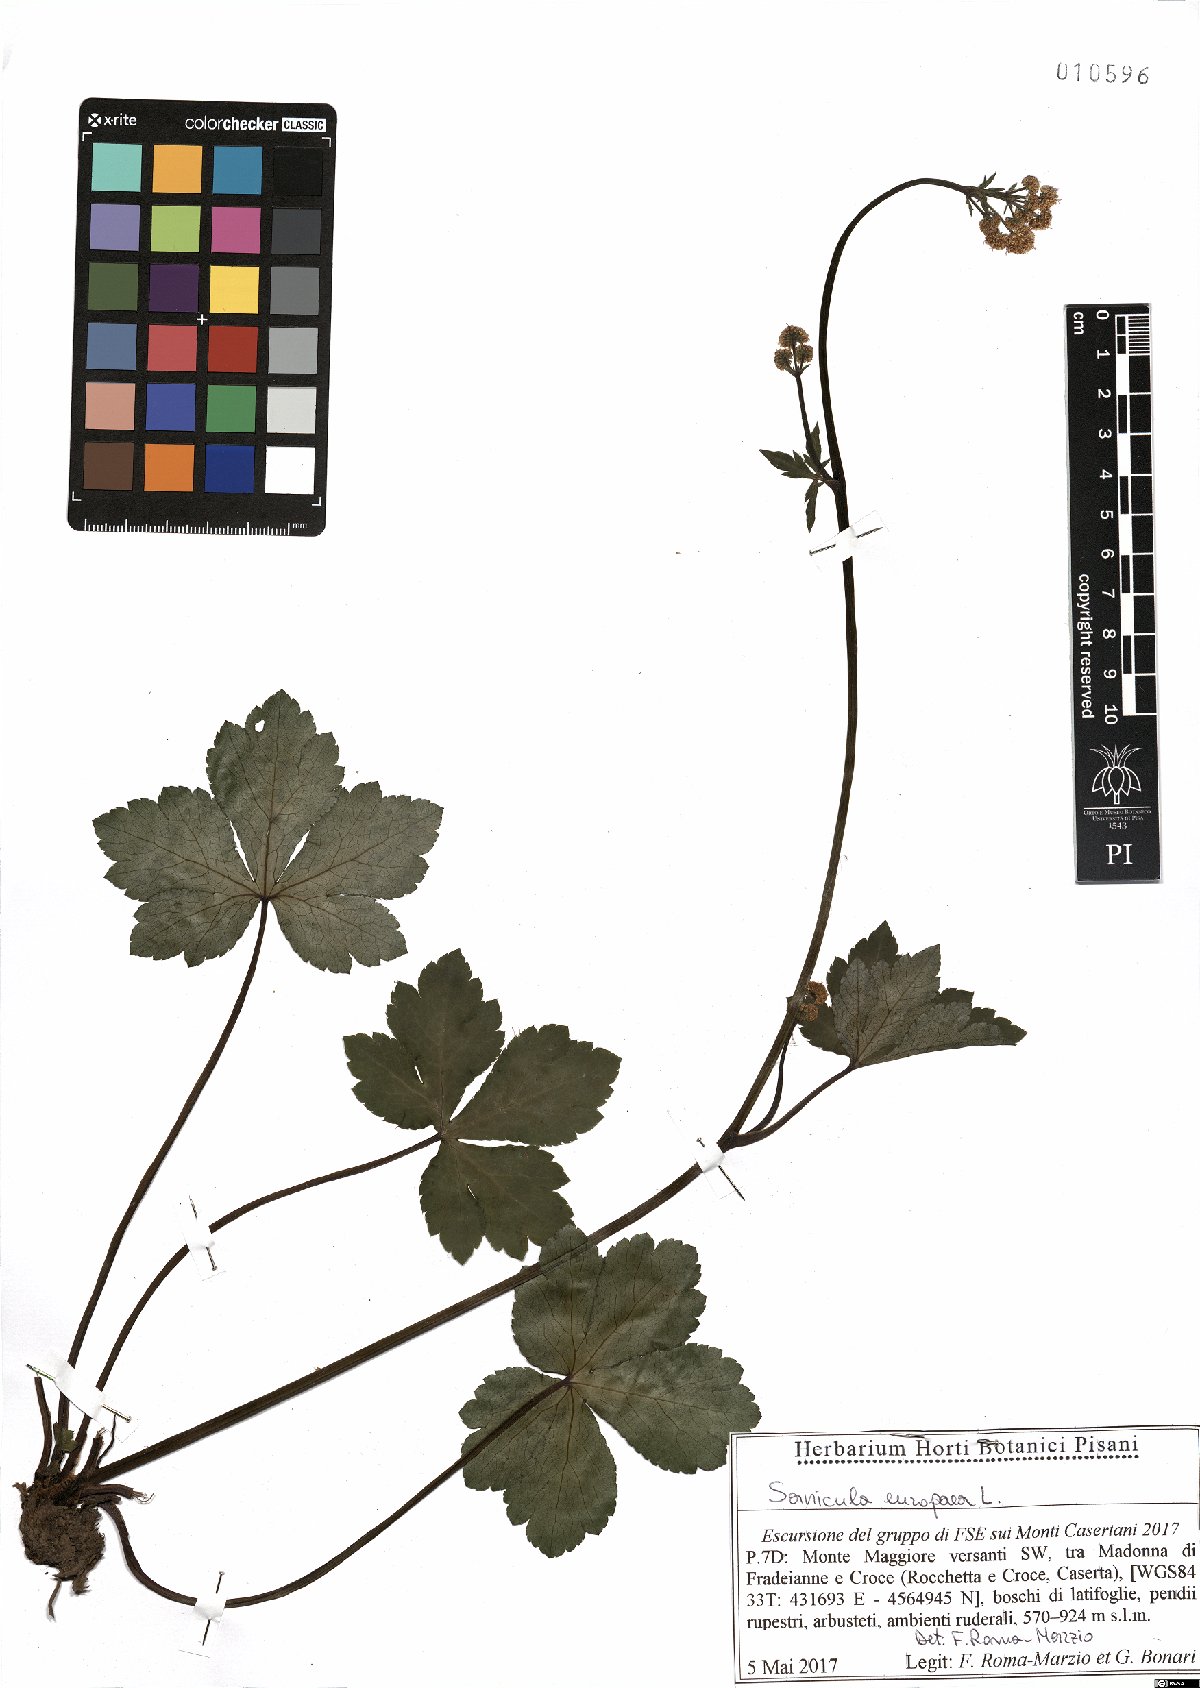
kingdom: Plantae
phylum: Tracheophyta
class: Magnoliopsida
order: Apiales
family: Apiaceae
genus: Sanicula
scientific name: Sanicula europaea
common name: Sanicle
